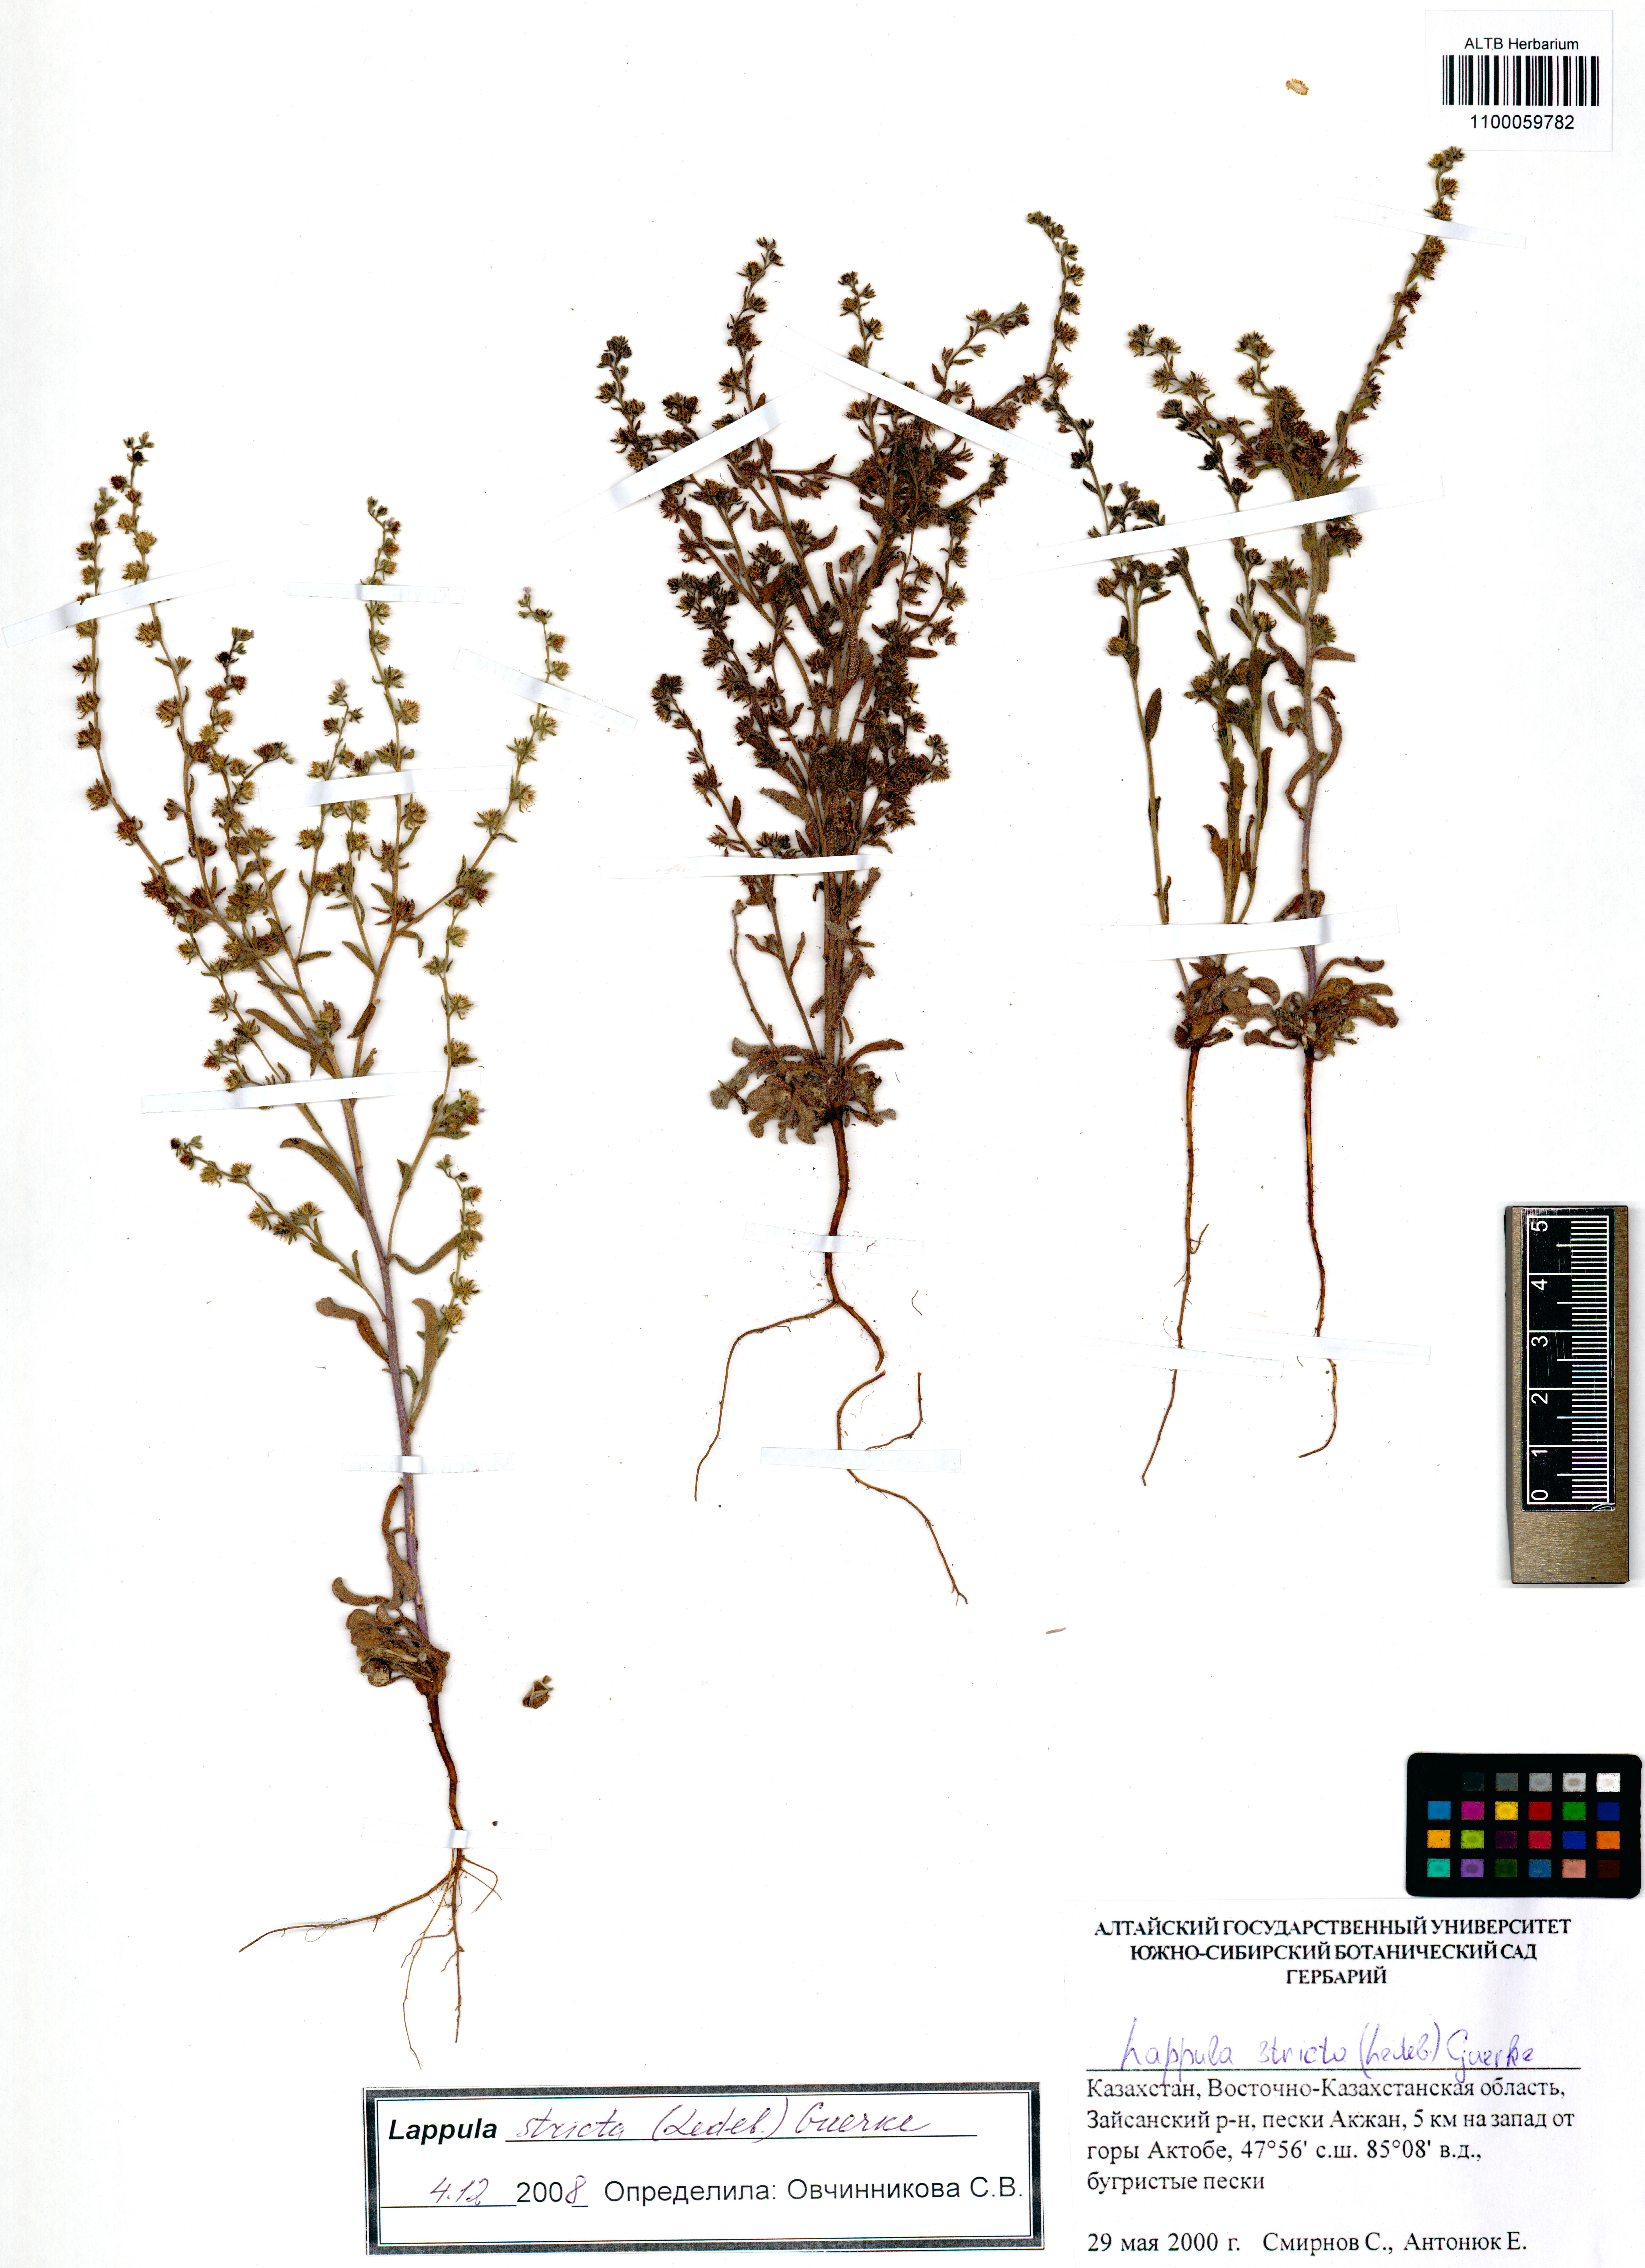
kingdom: Plantae
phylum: Tracheophyta
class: Magnoliopsida
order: Boraginales
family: Boraginaceae
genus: Lappula
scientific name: Lappula stricta
